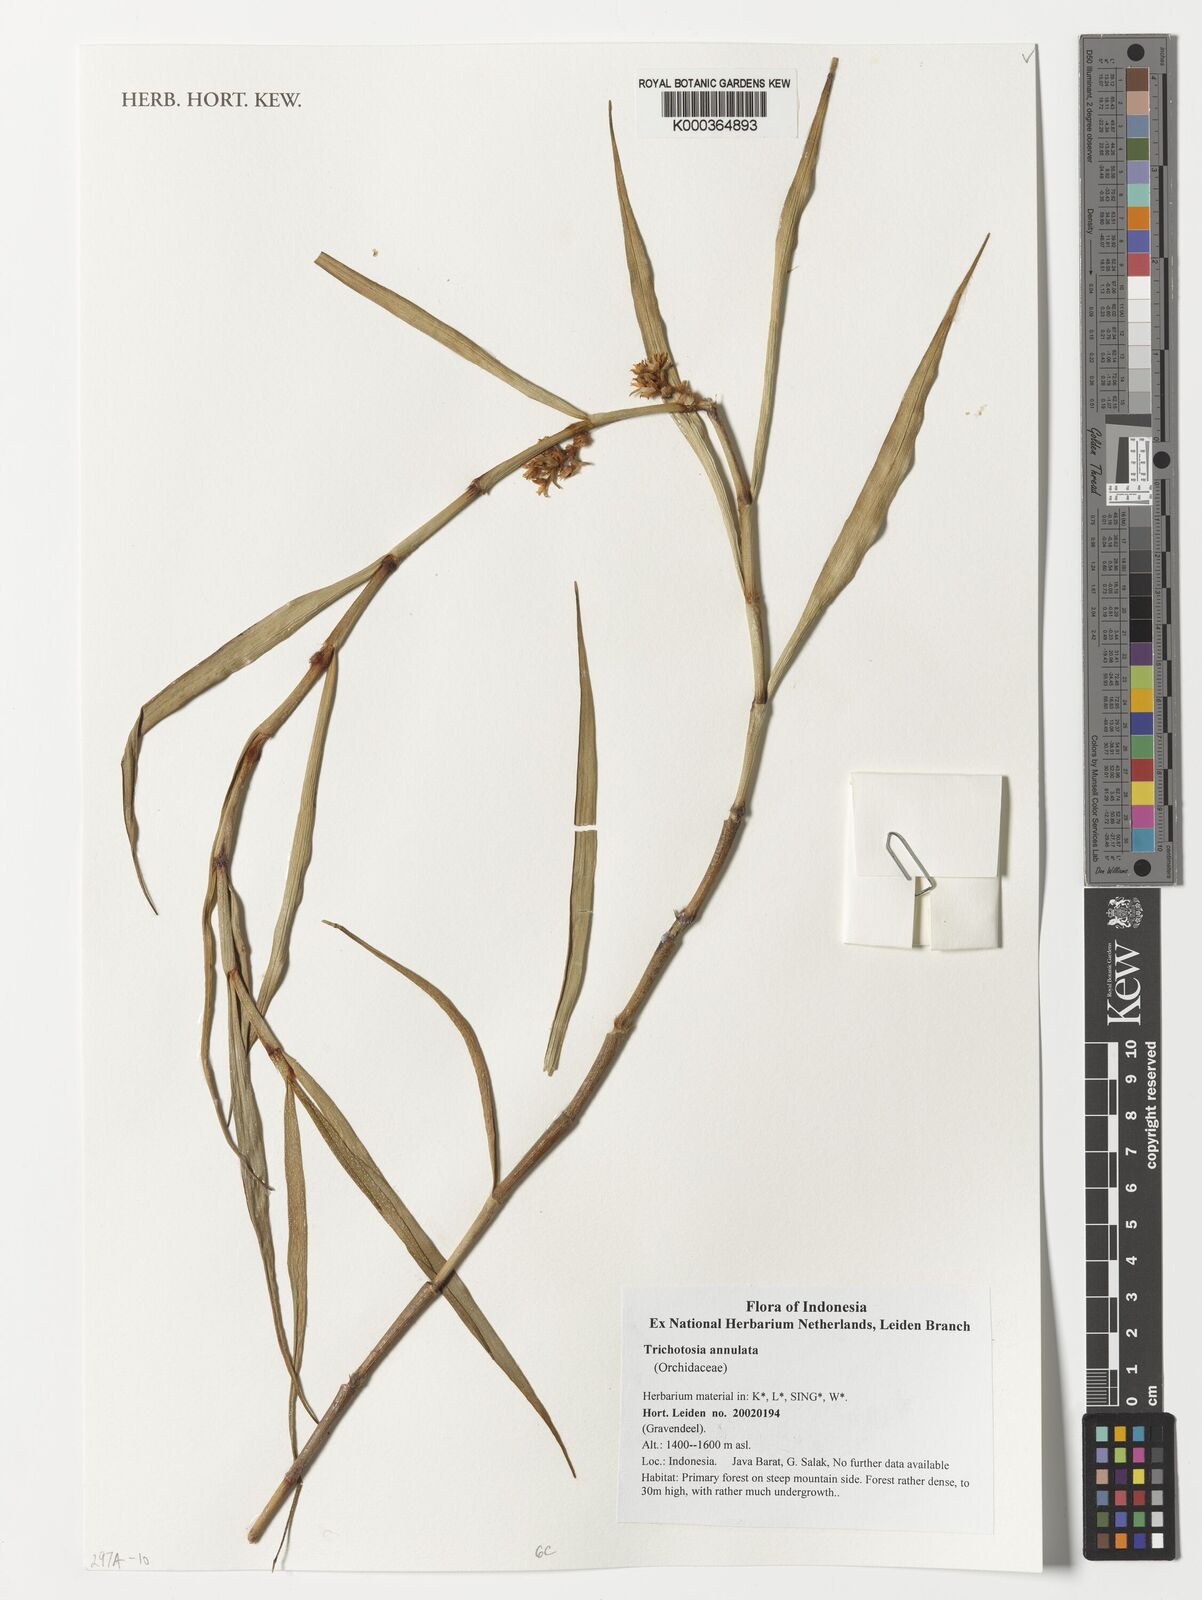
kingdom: Plantae
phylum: Tracheophyta
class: Liliopsida
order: Asparagales
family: Orchidaceae
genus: Trichotosia
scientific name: Trichotosia annulata
